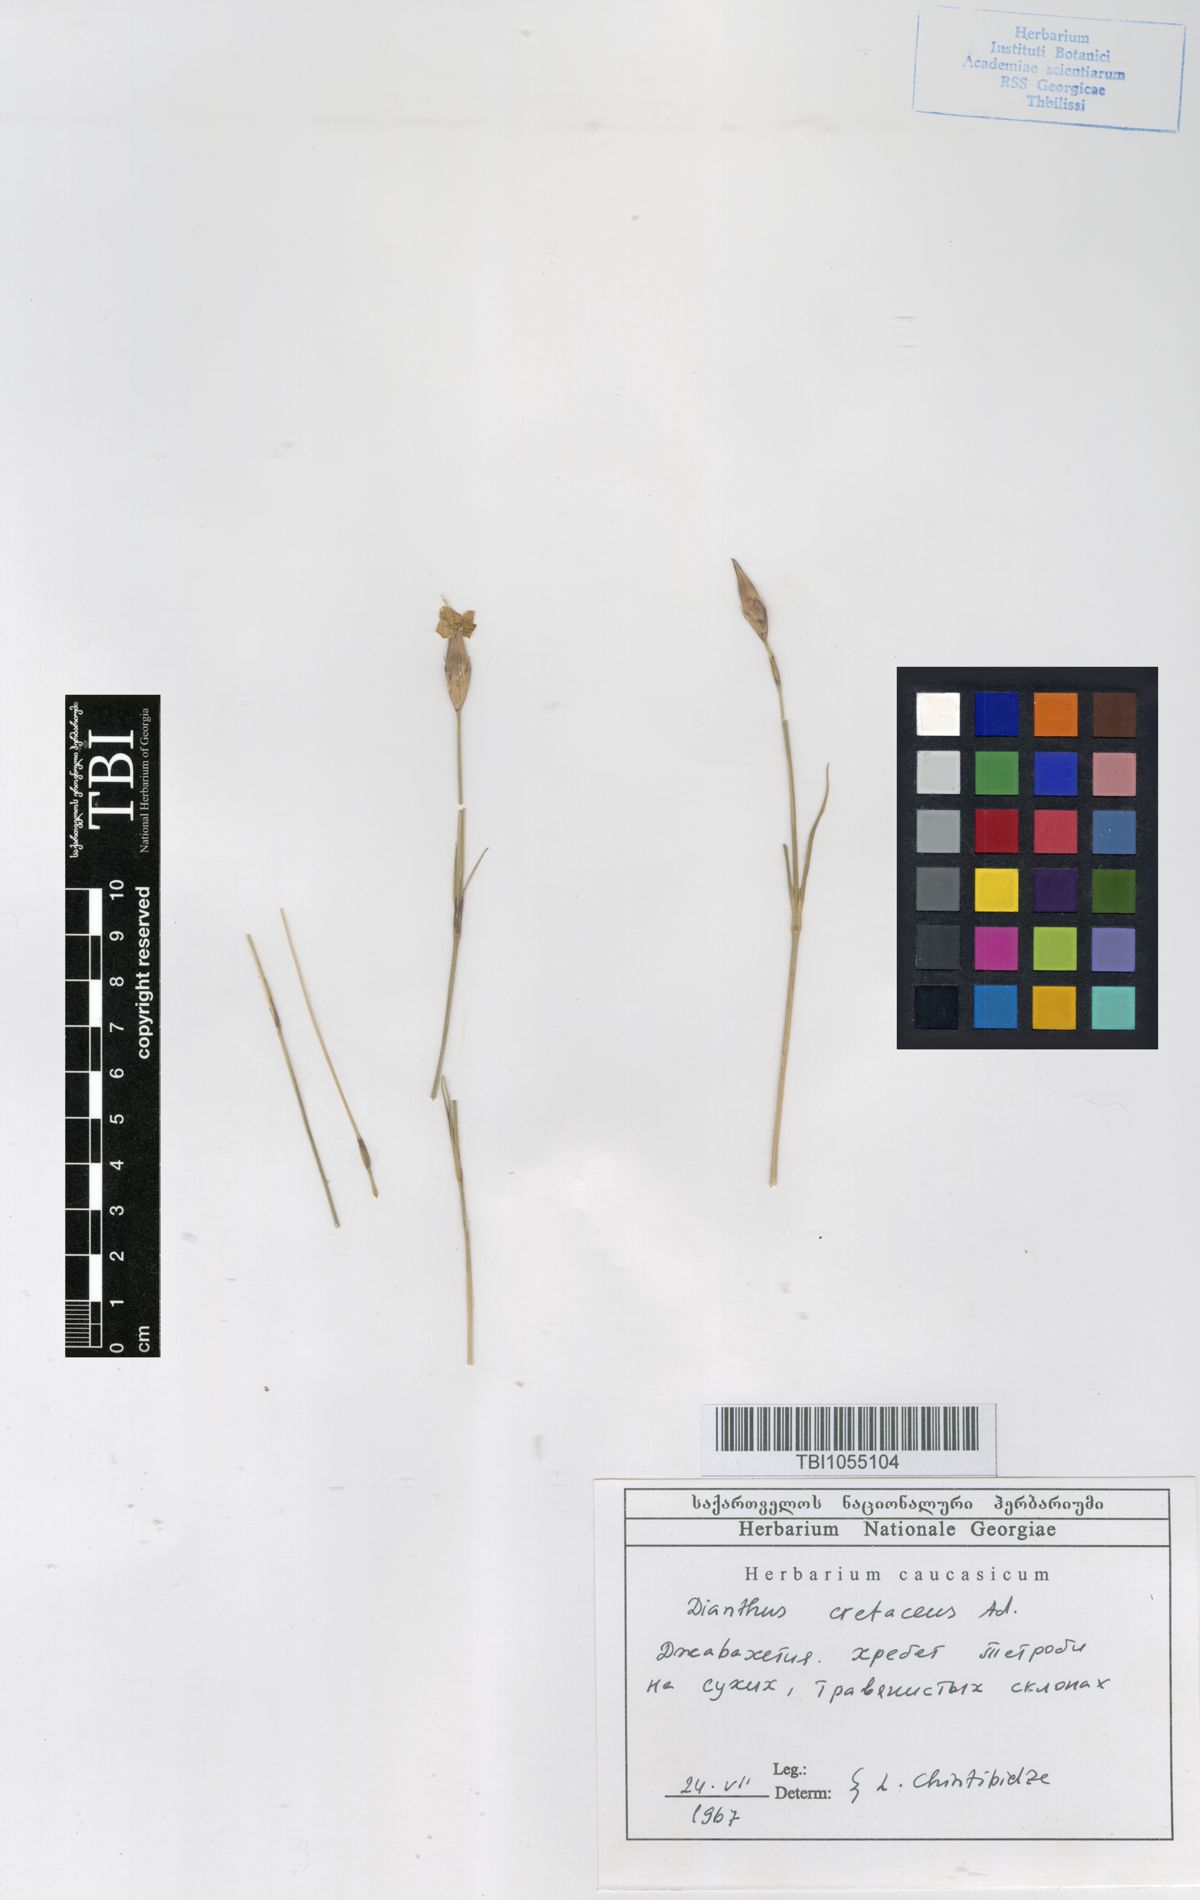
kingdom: Plantae
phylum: Tracheophyta
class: Magnoliopsida
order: Caryophyllales
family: Caryophyllaceae
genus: Dianthus
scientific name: Dianthus cretaceus
